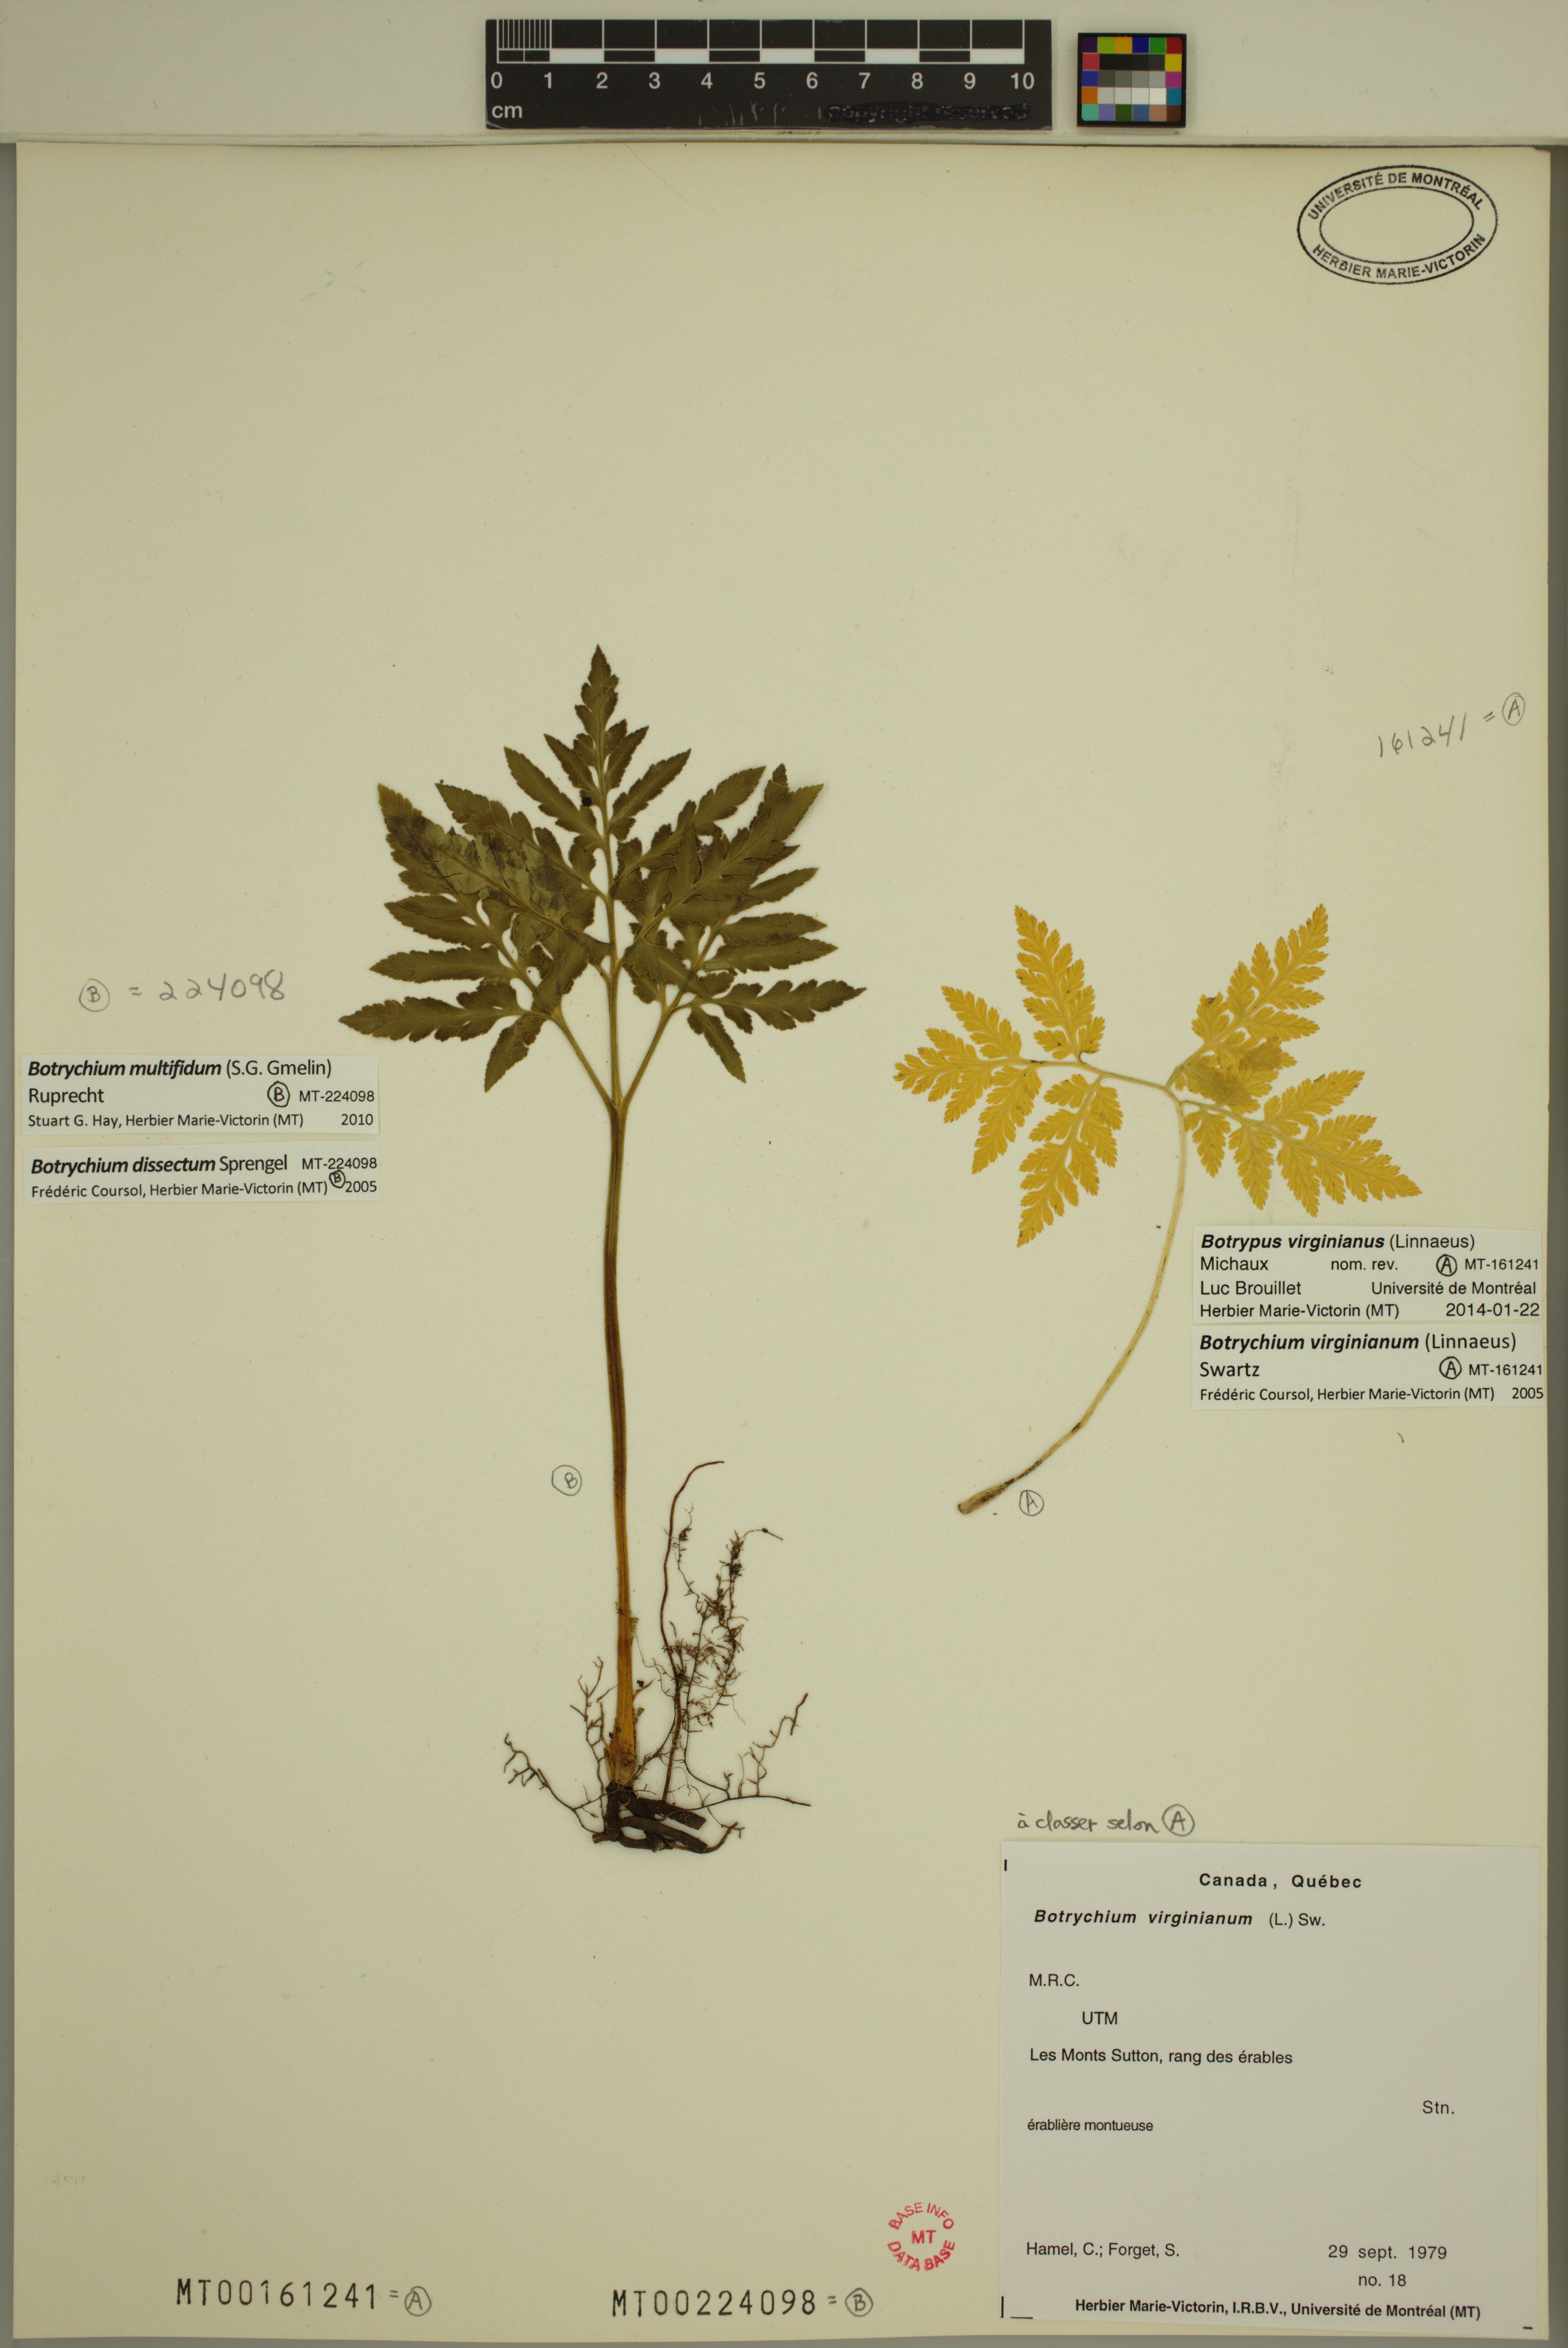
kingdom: Plantae
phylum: Tracheophyta
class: Polypodiopsida
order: Ophioglossales
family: Ophioglossaceae
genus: Sceptridium
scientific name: Sceptridium multifidum
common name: Leathery grape fern
